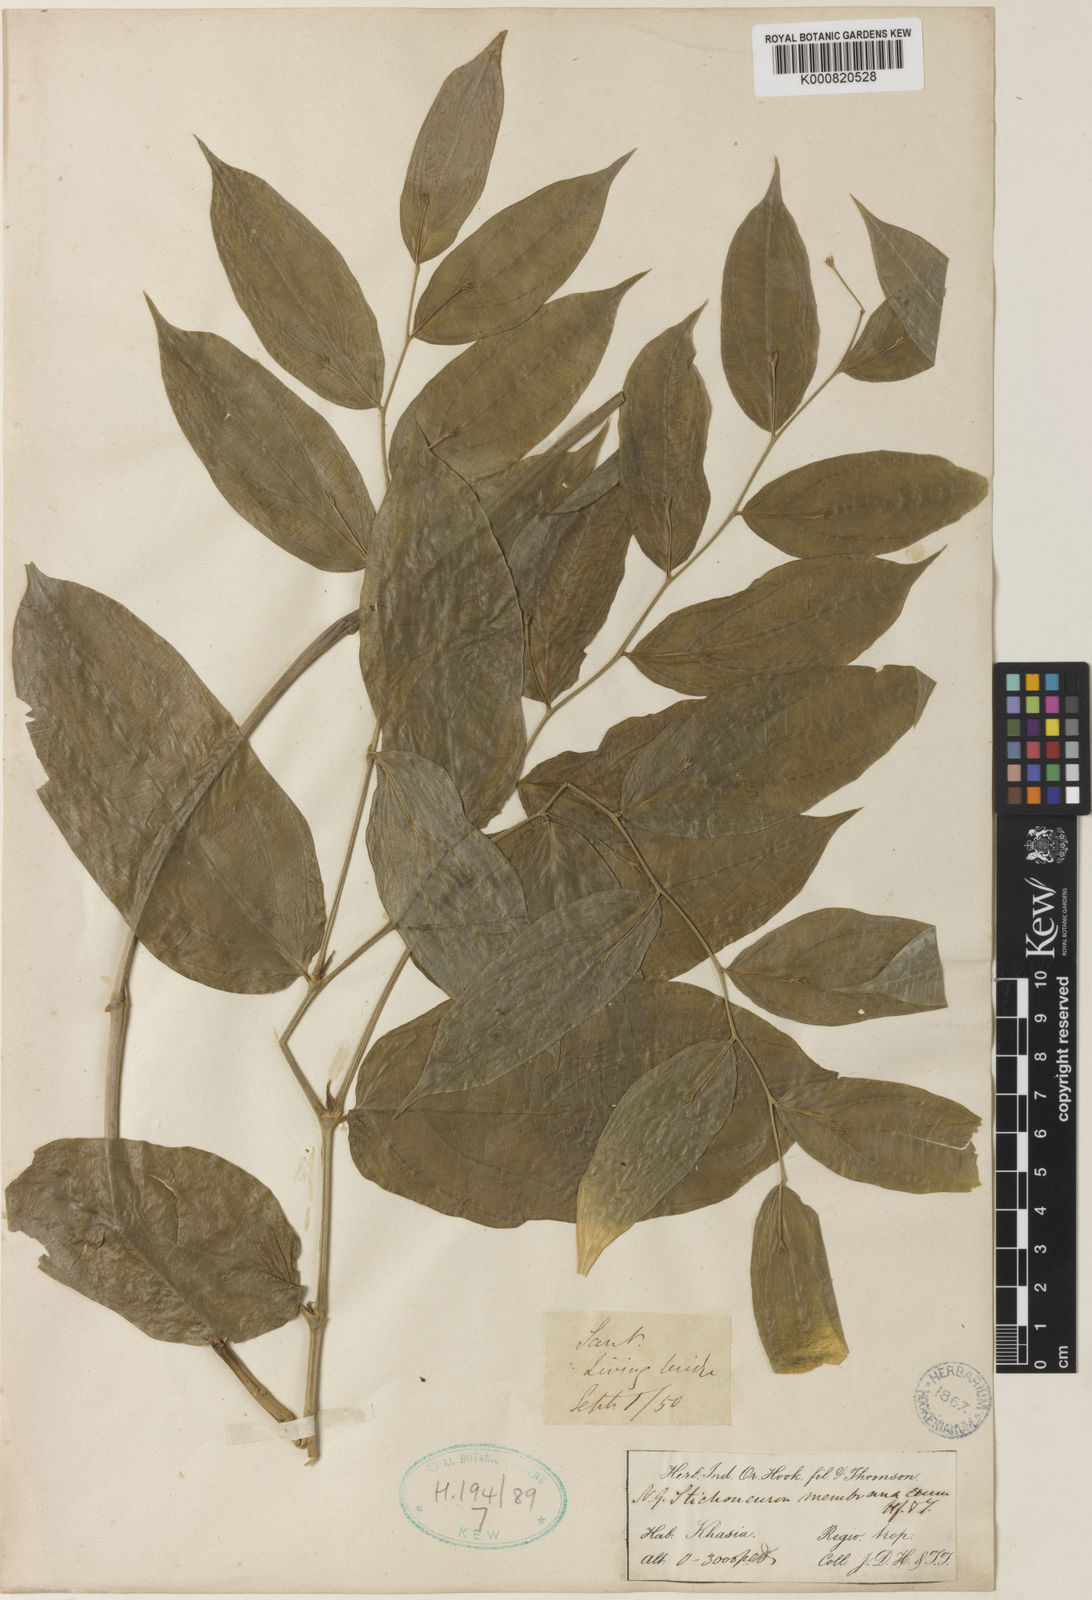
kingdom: Plantae
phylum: Tracheophyta
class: Liliopsida
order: Pandanales
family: Stemonaceae
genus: Stichoneuron
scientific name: Stichoneuron membranaceum
